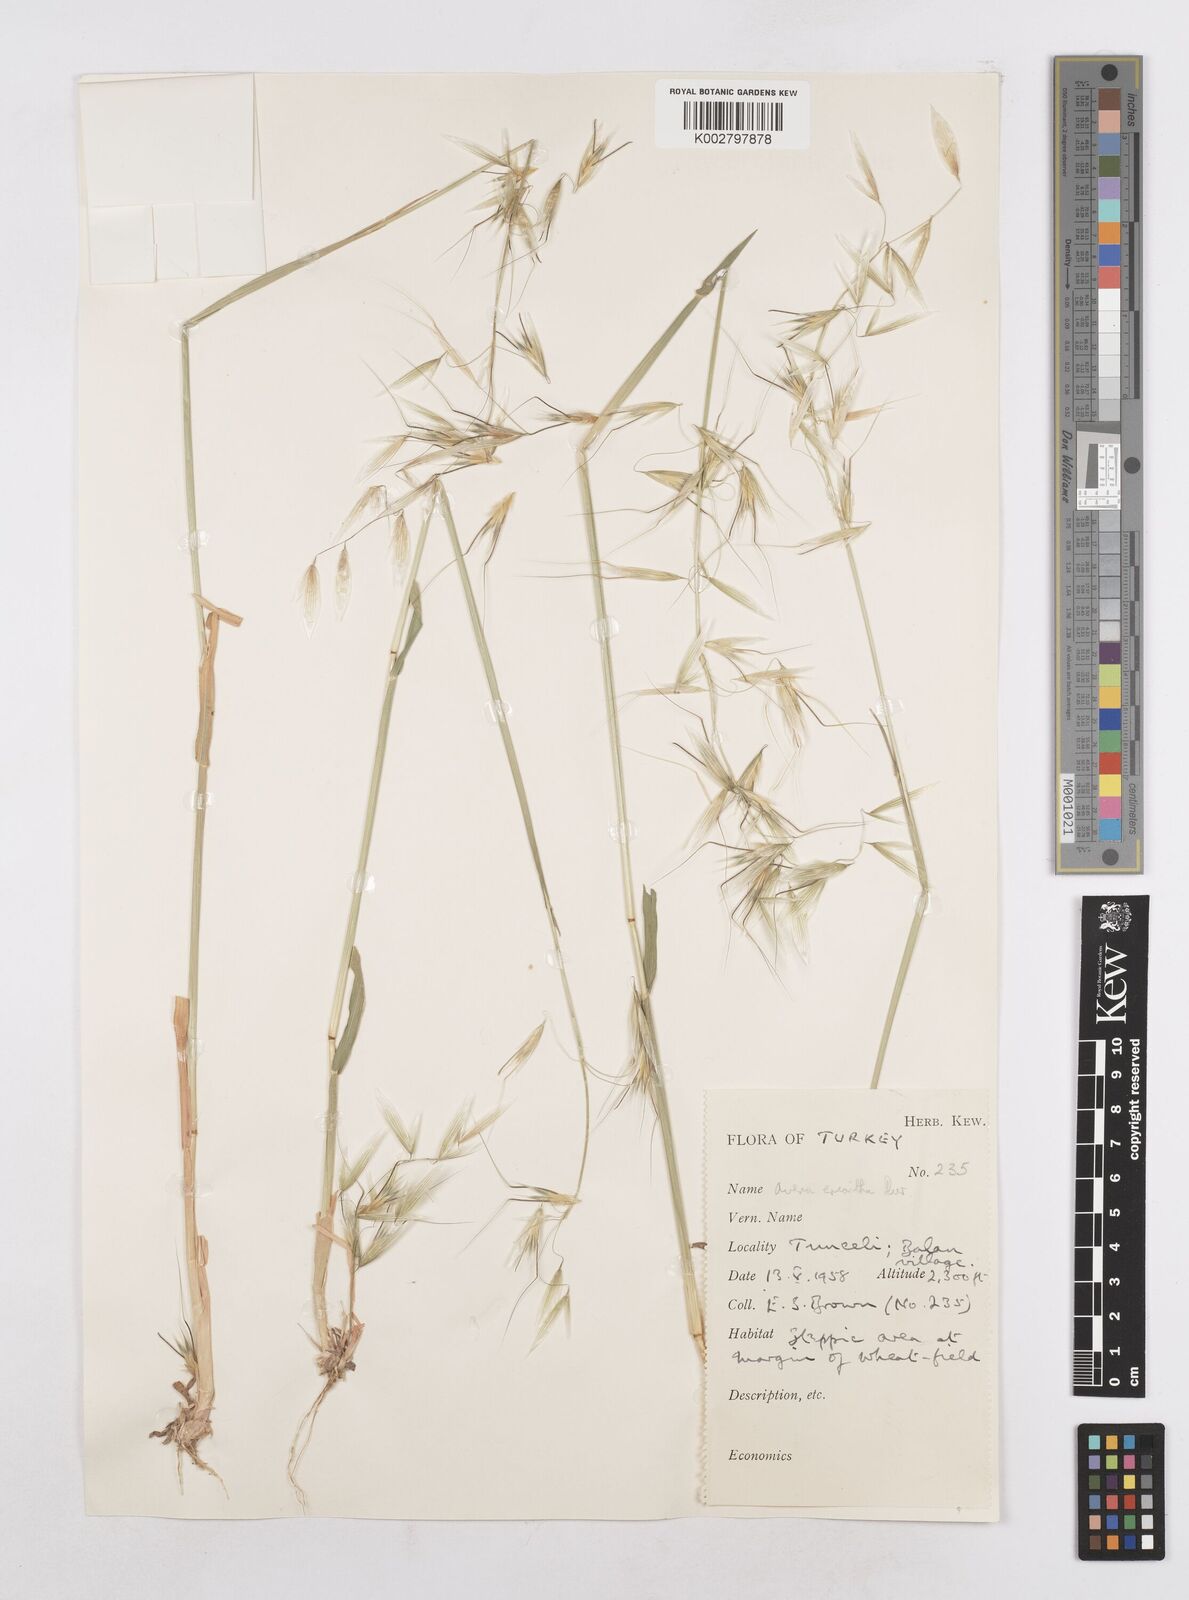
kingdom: Plantae
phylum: Tracheophyta
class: Liliopsida
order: Poales
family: Poaceae
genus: Avena
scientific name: Avena eriantha
